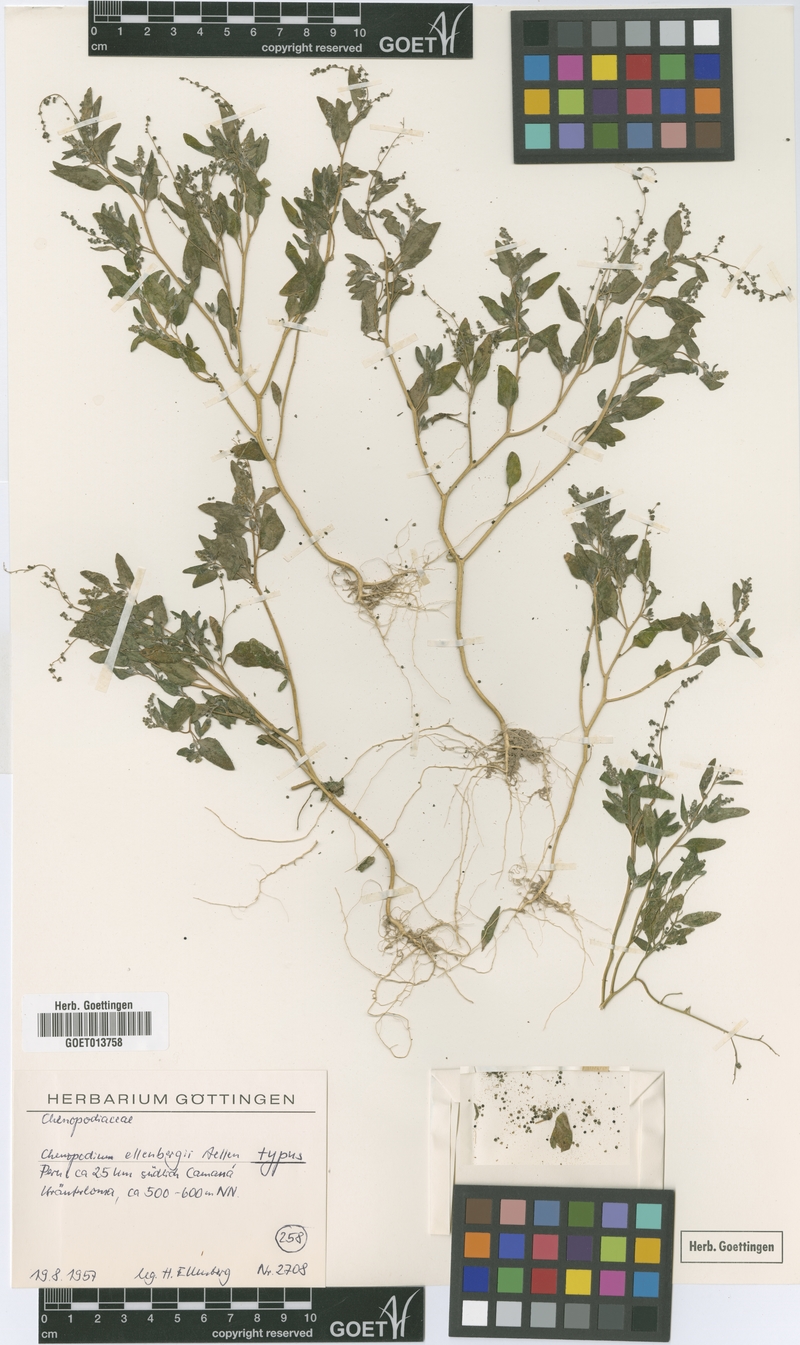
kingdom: Plantae
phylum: Tracheophyta
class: Magnoliopsida
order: Caryophyllales
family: Amaranthaceae
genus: Chenopodium
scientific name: Chenopodium
